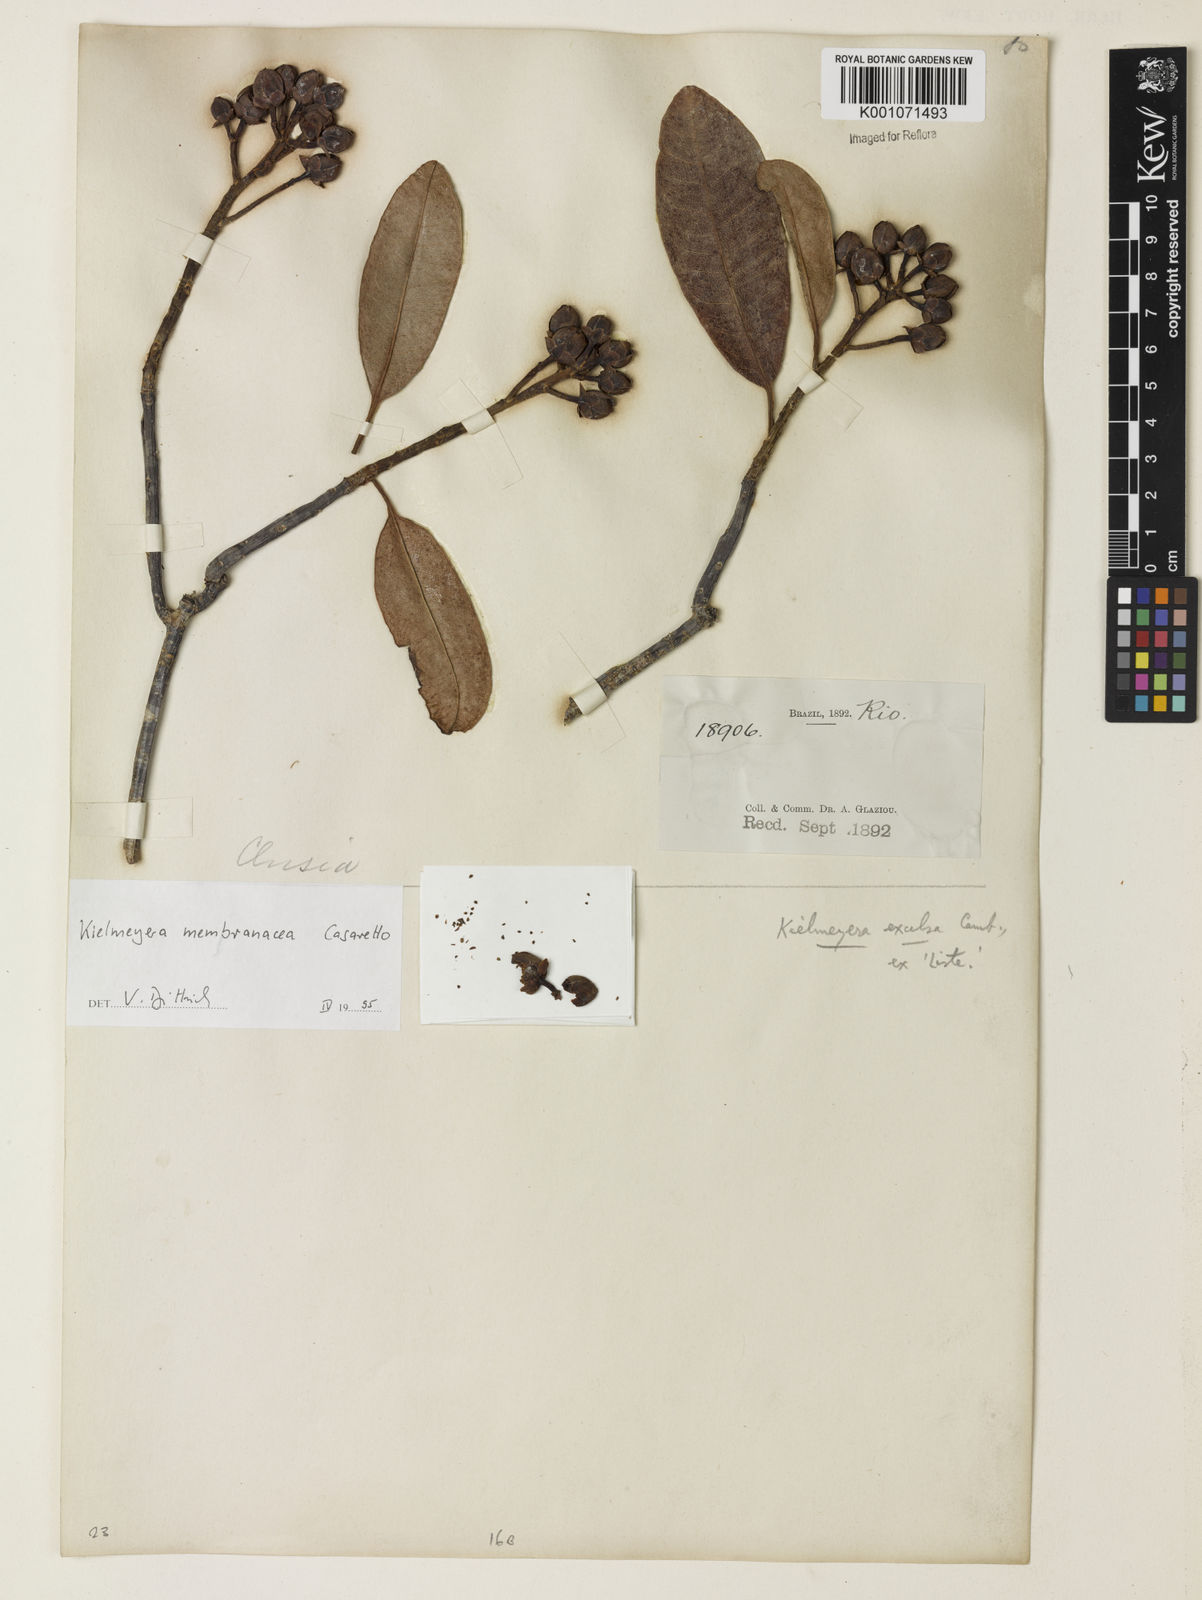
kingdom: Plantae
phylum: Tracheophyta
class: Magnoliopsida
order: Malpighiales
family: Calophyllaceae
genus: Kielmeyera
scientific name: Kielmeyera membranacea
